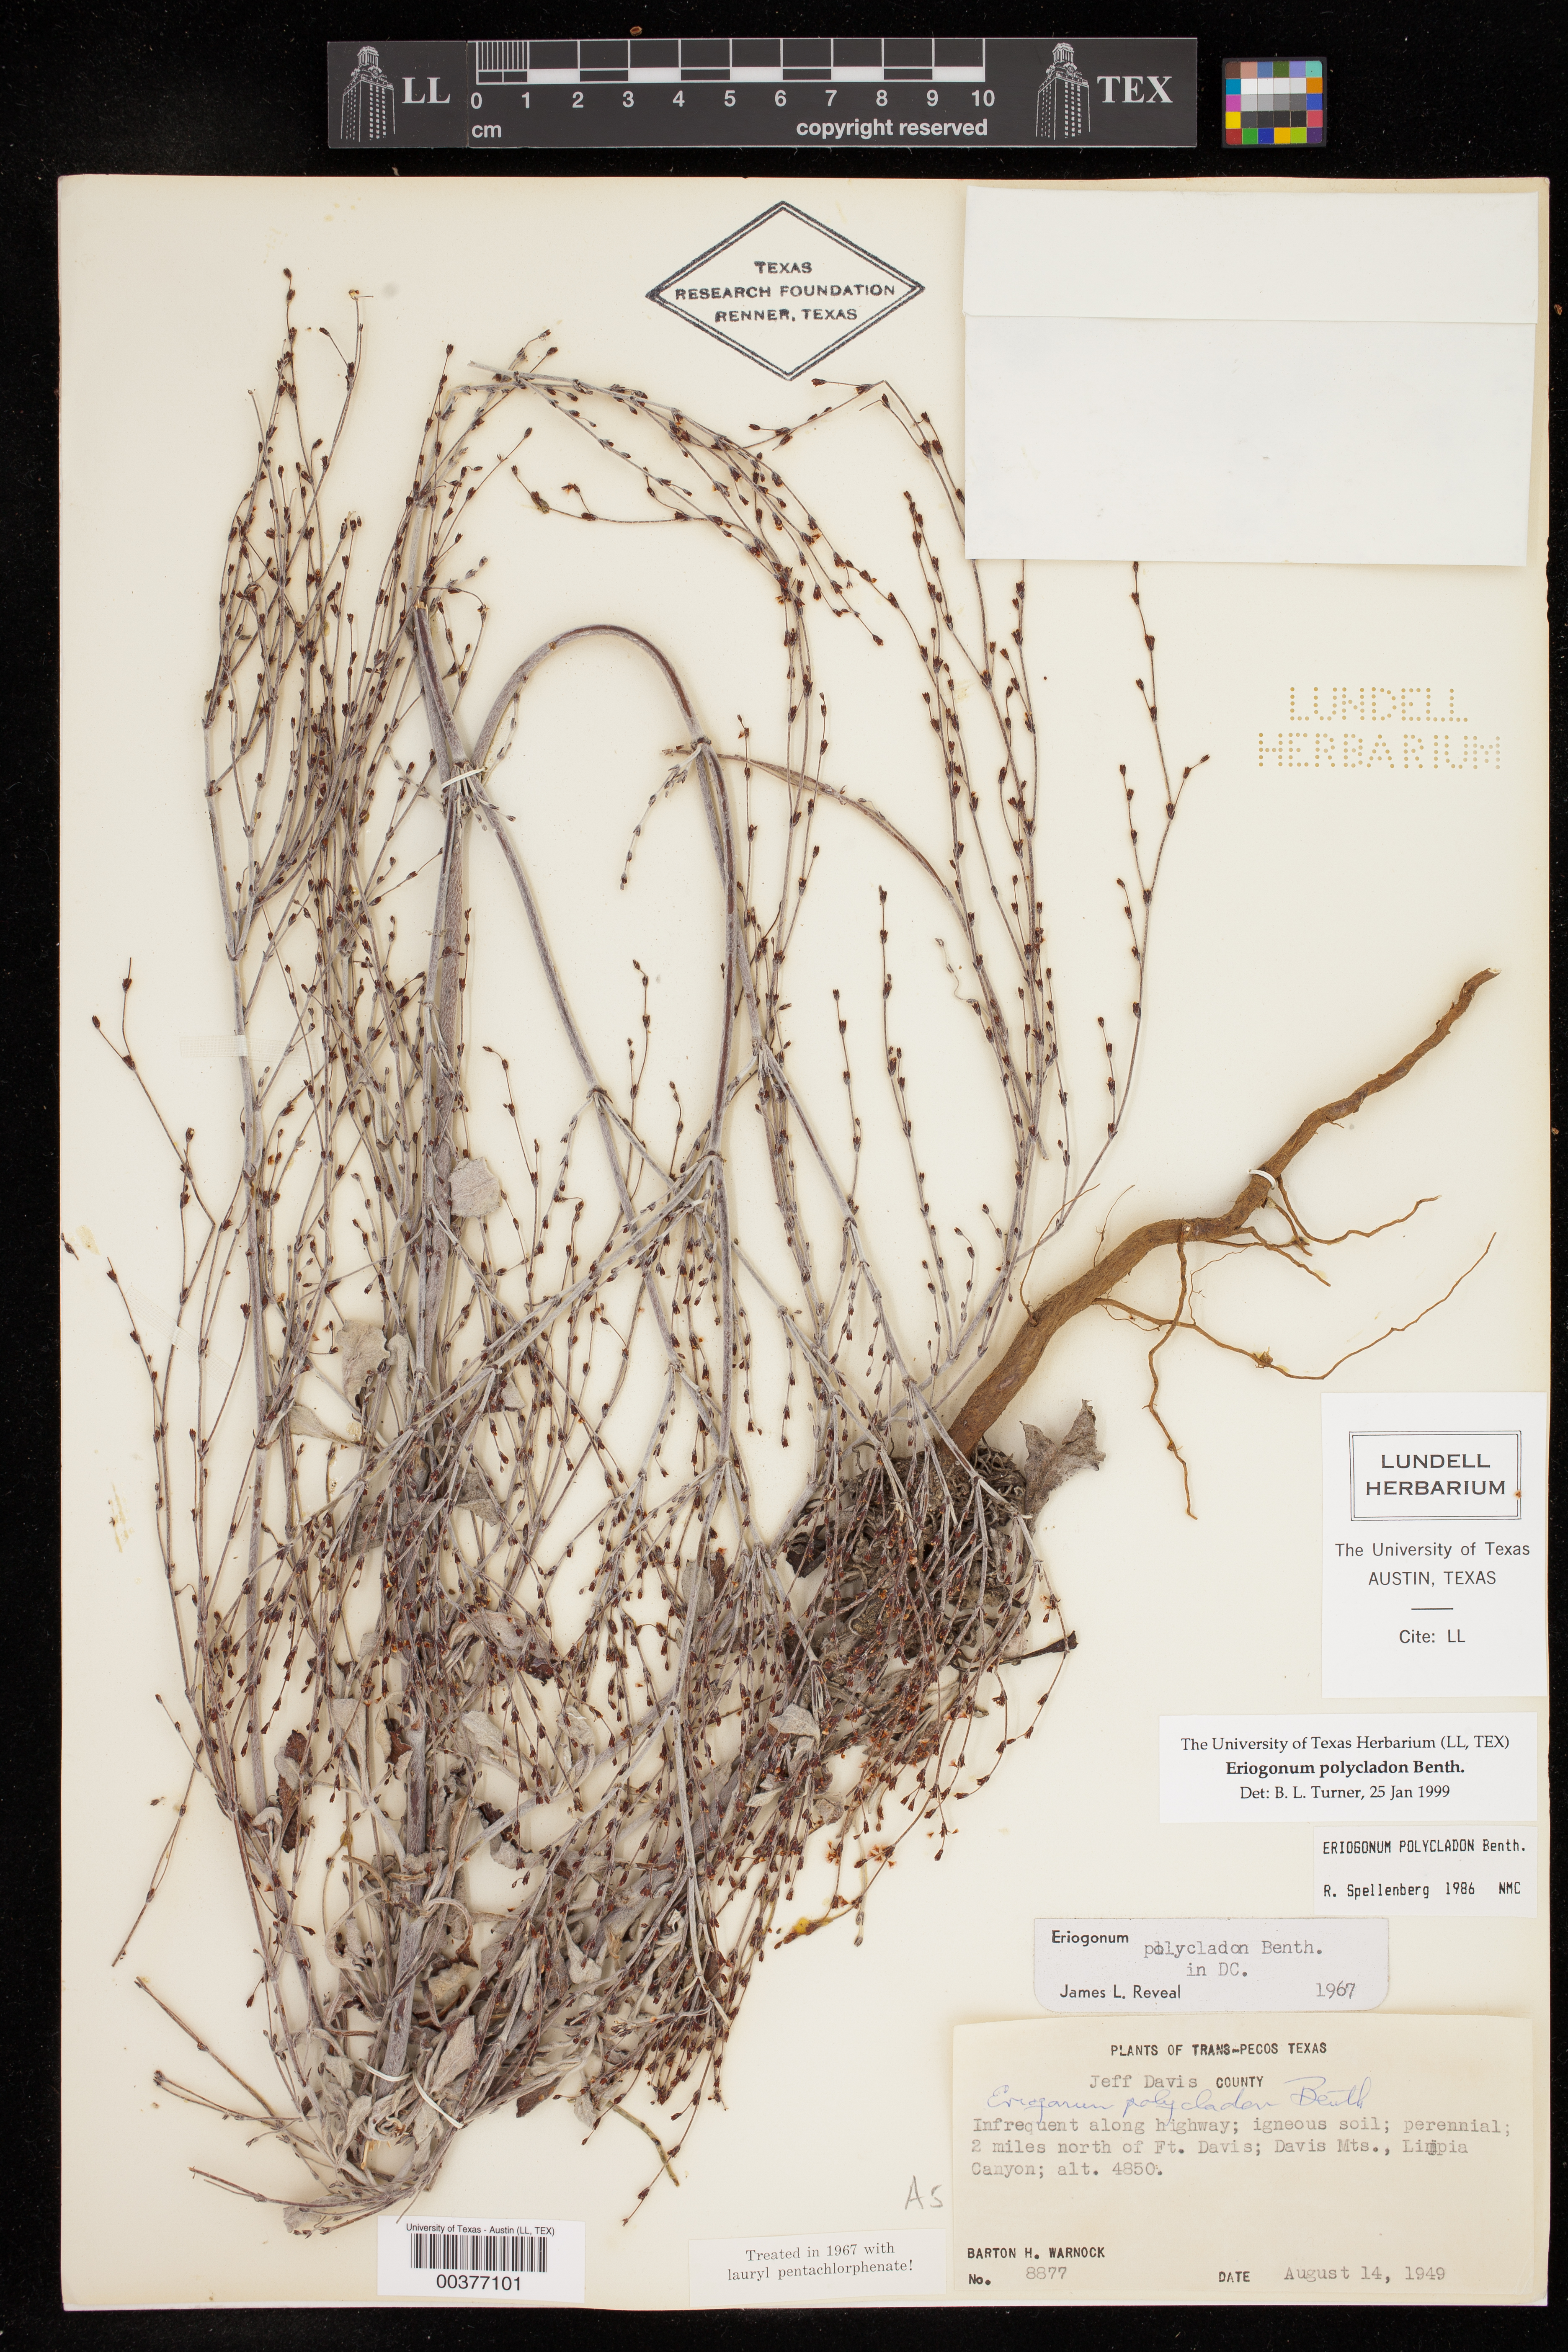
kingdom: Plantae
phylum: Tracheophyta
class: Magnoliopsida
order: Caryophyllales
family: Polygonaceae
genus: Eriogonum
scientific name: Eriogonum polycladon
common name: Sorrel wild buckwheat
